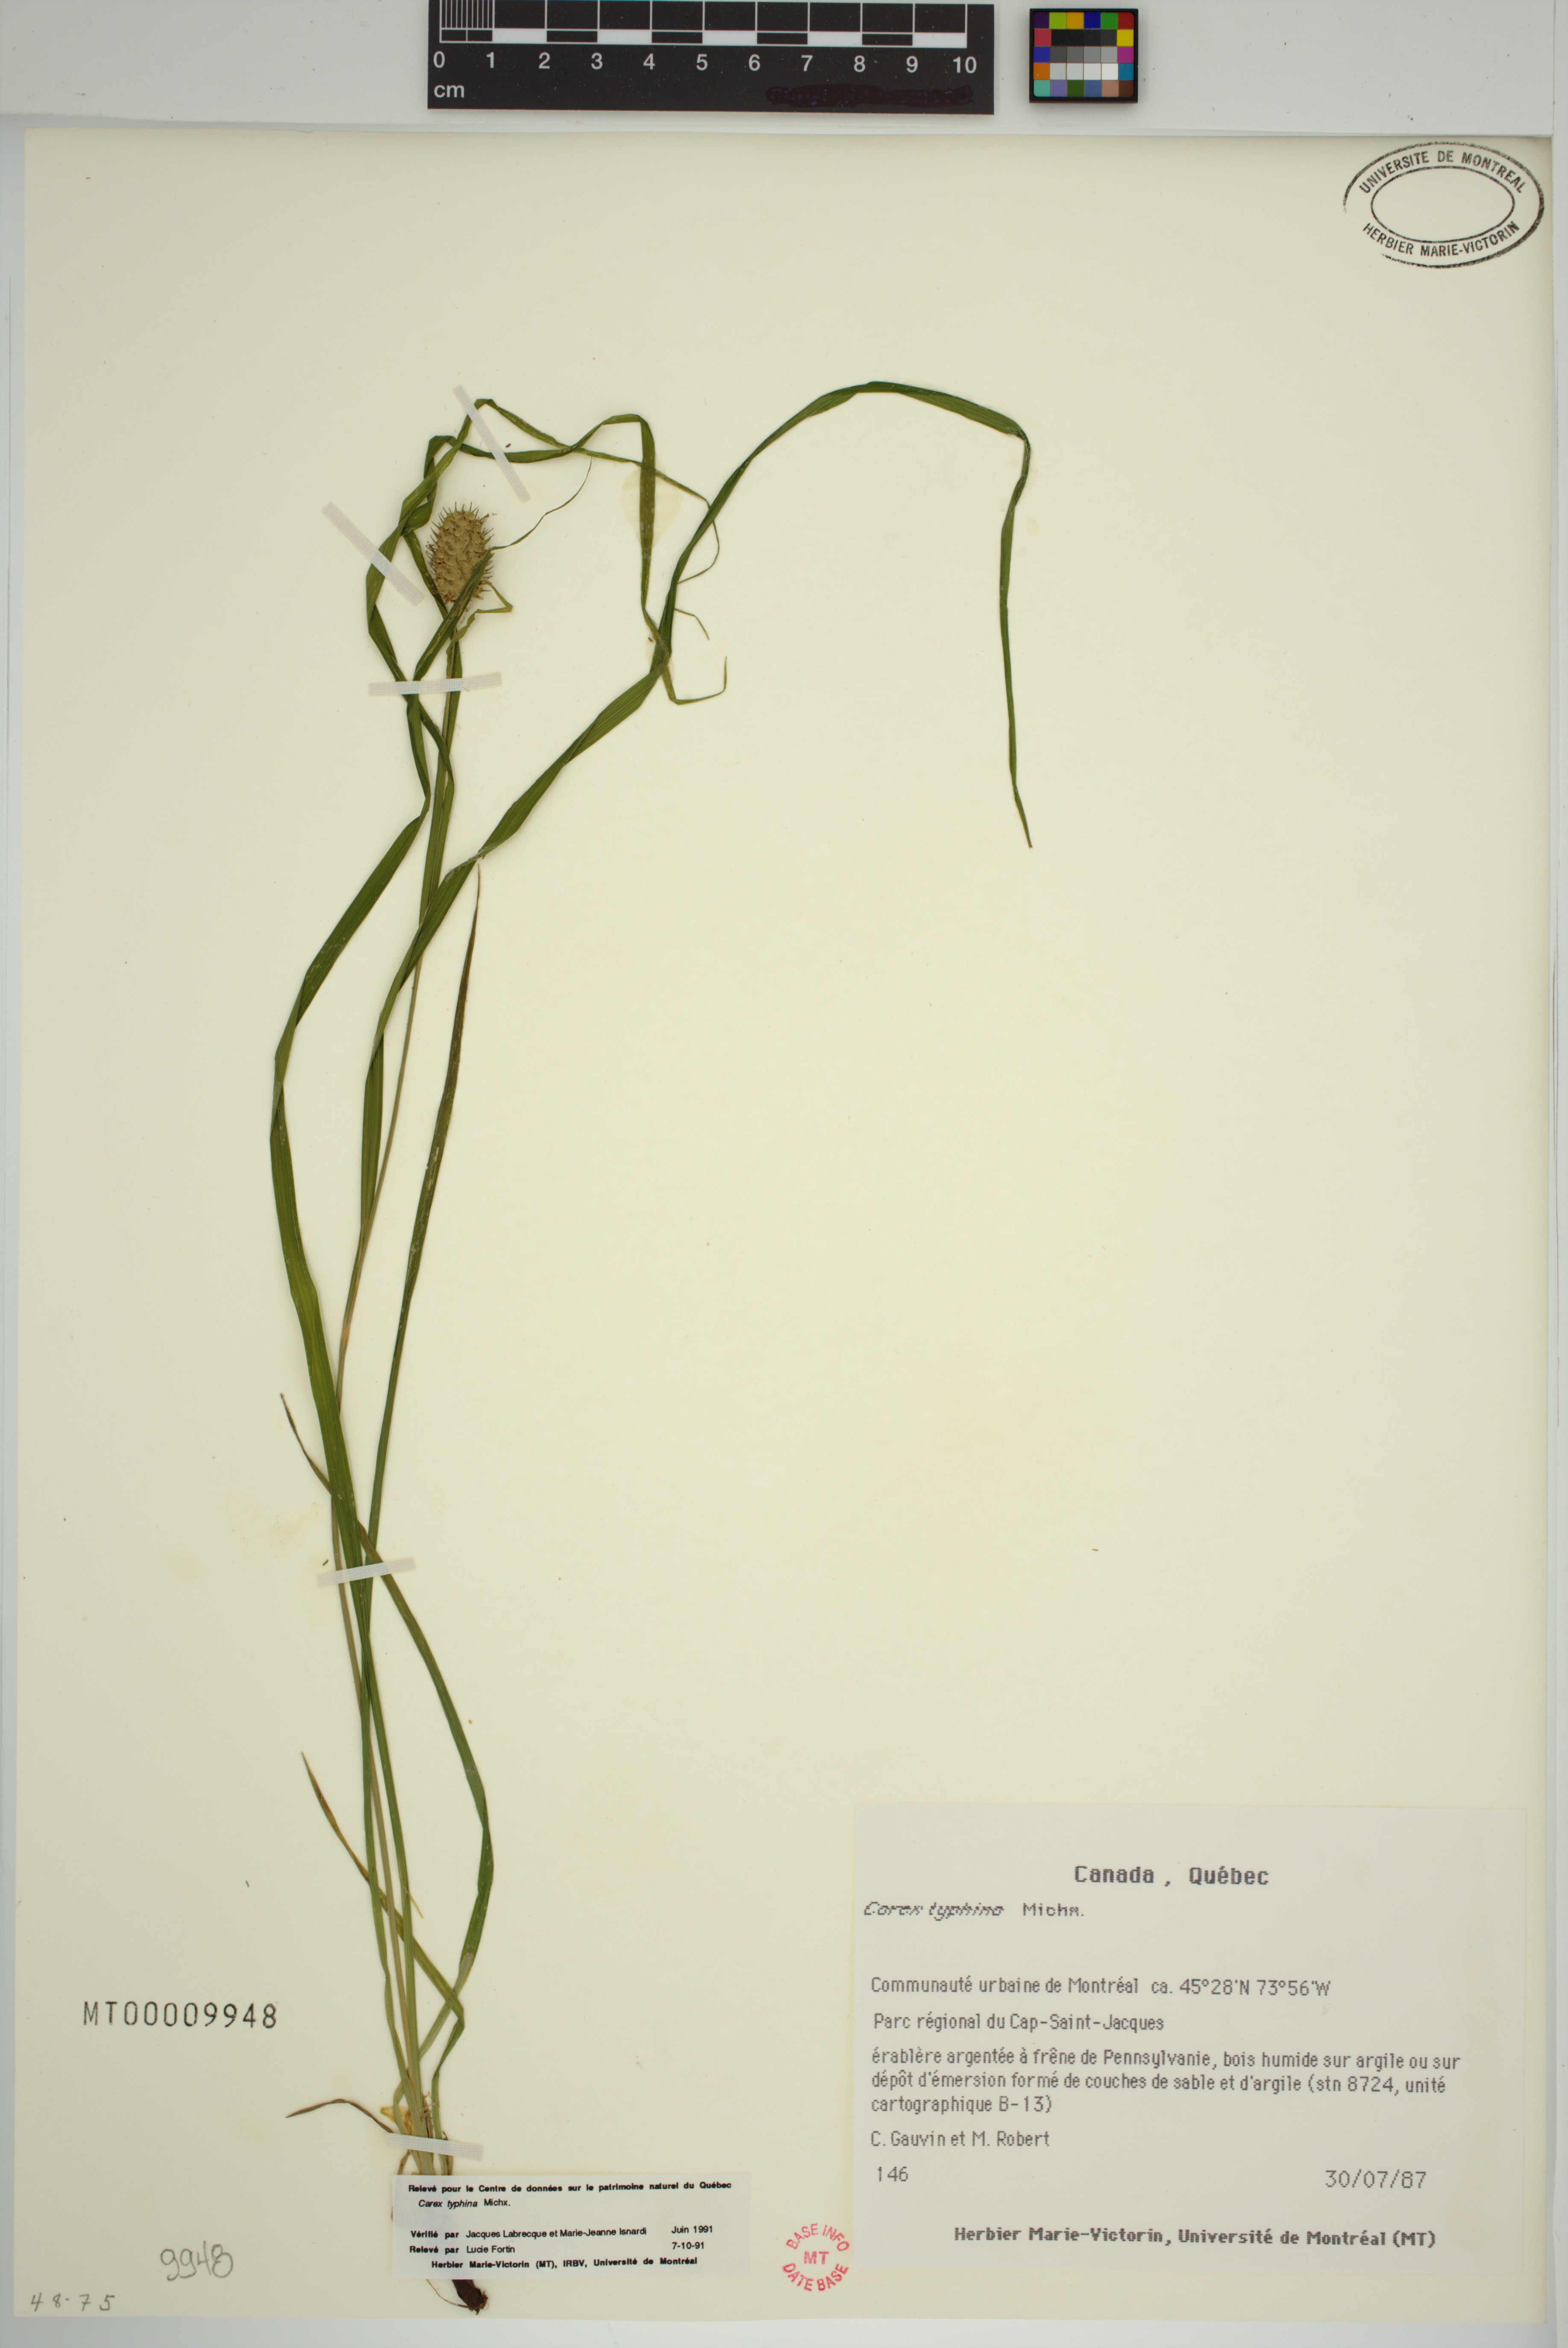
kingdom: Plantae
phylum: Tracheophyta
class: Liliopsida
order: Poales
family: Cyperaceae
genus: Carex
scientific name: Carex typhina
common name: Cattail sedge
